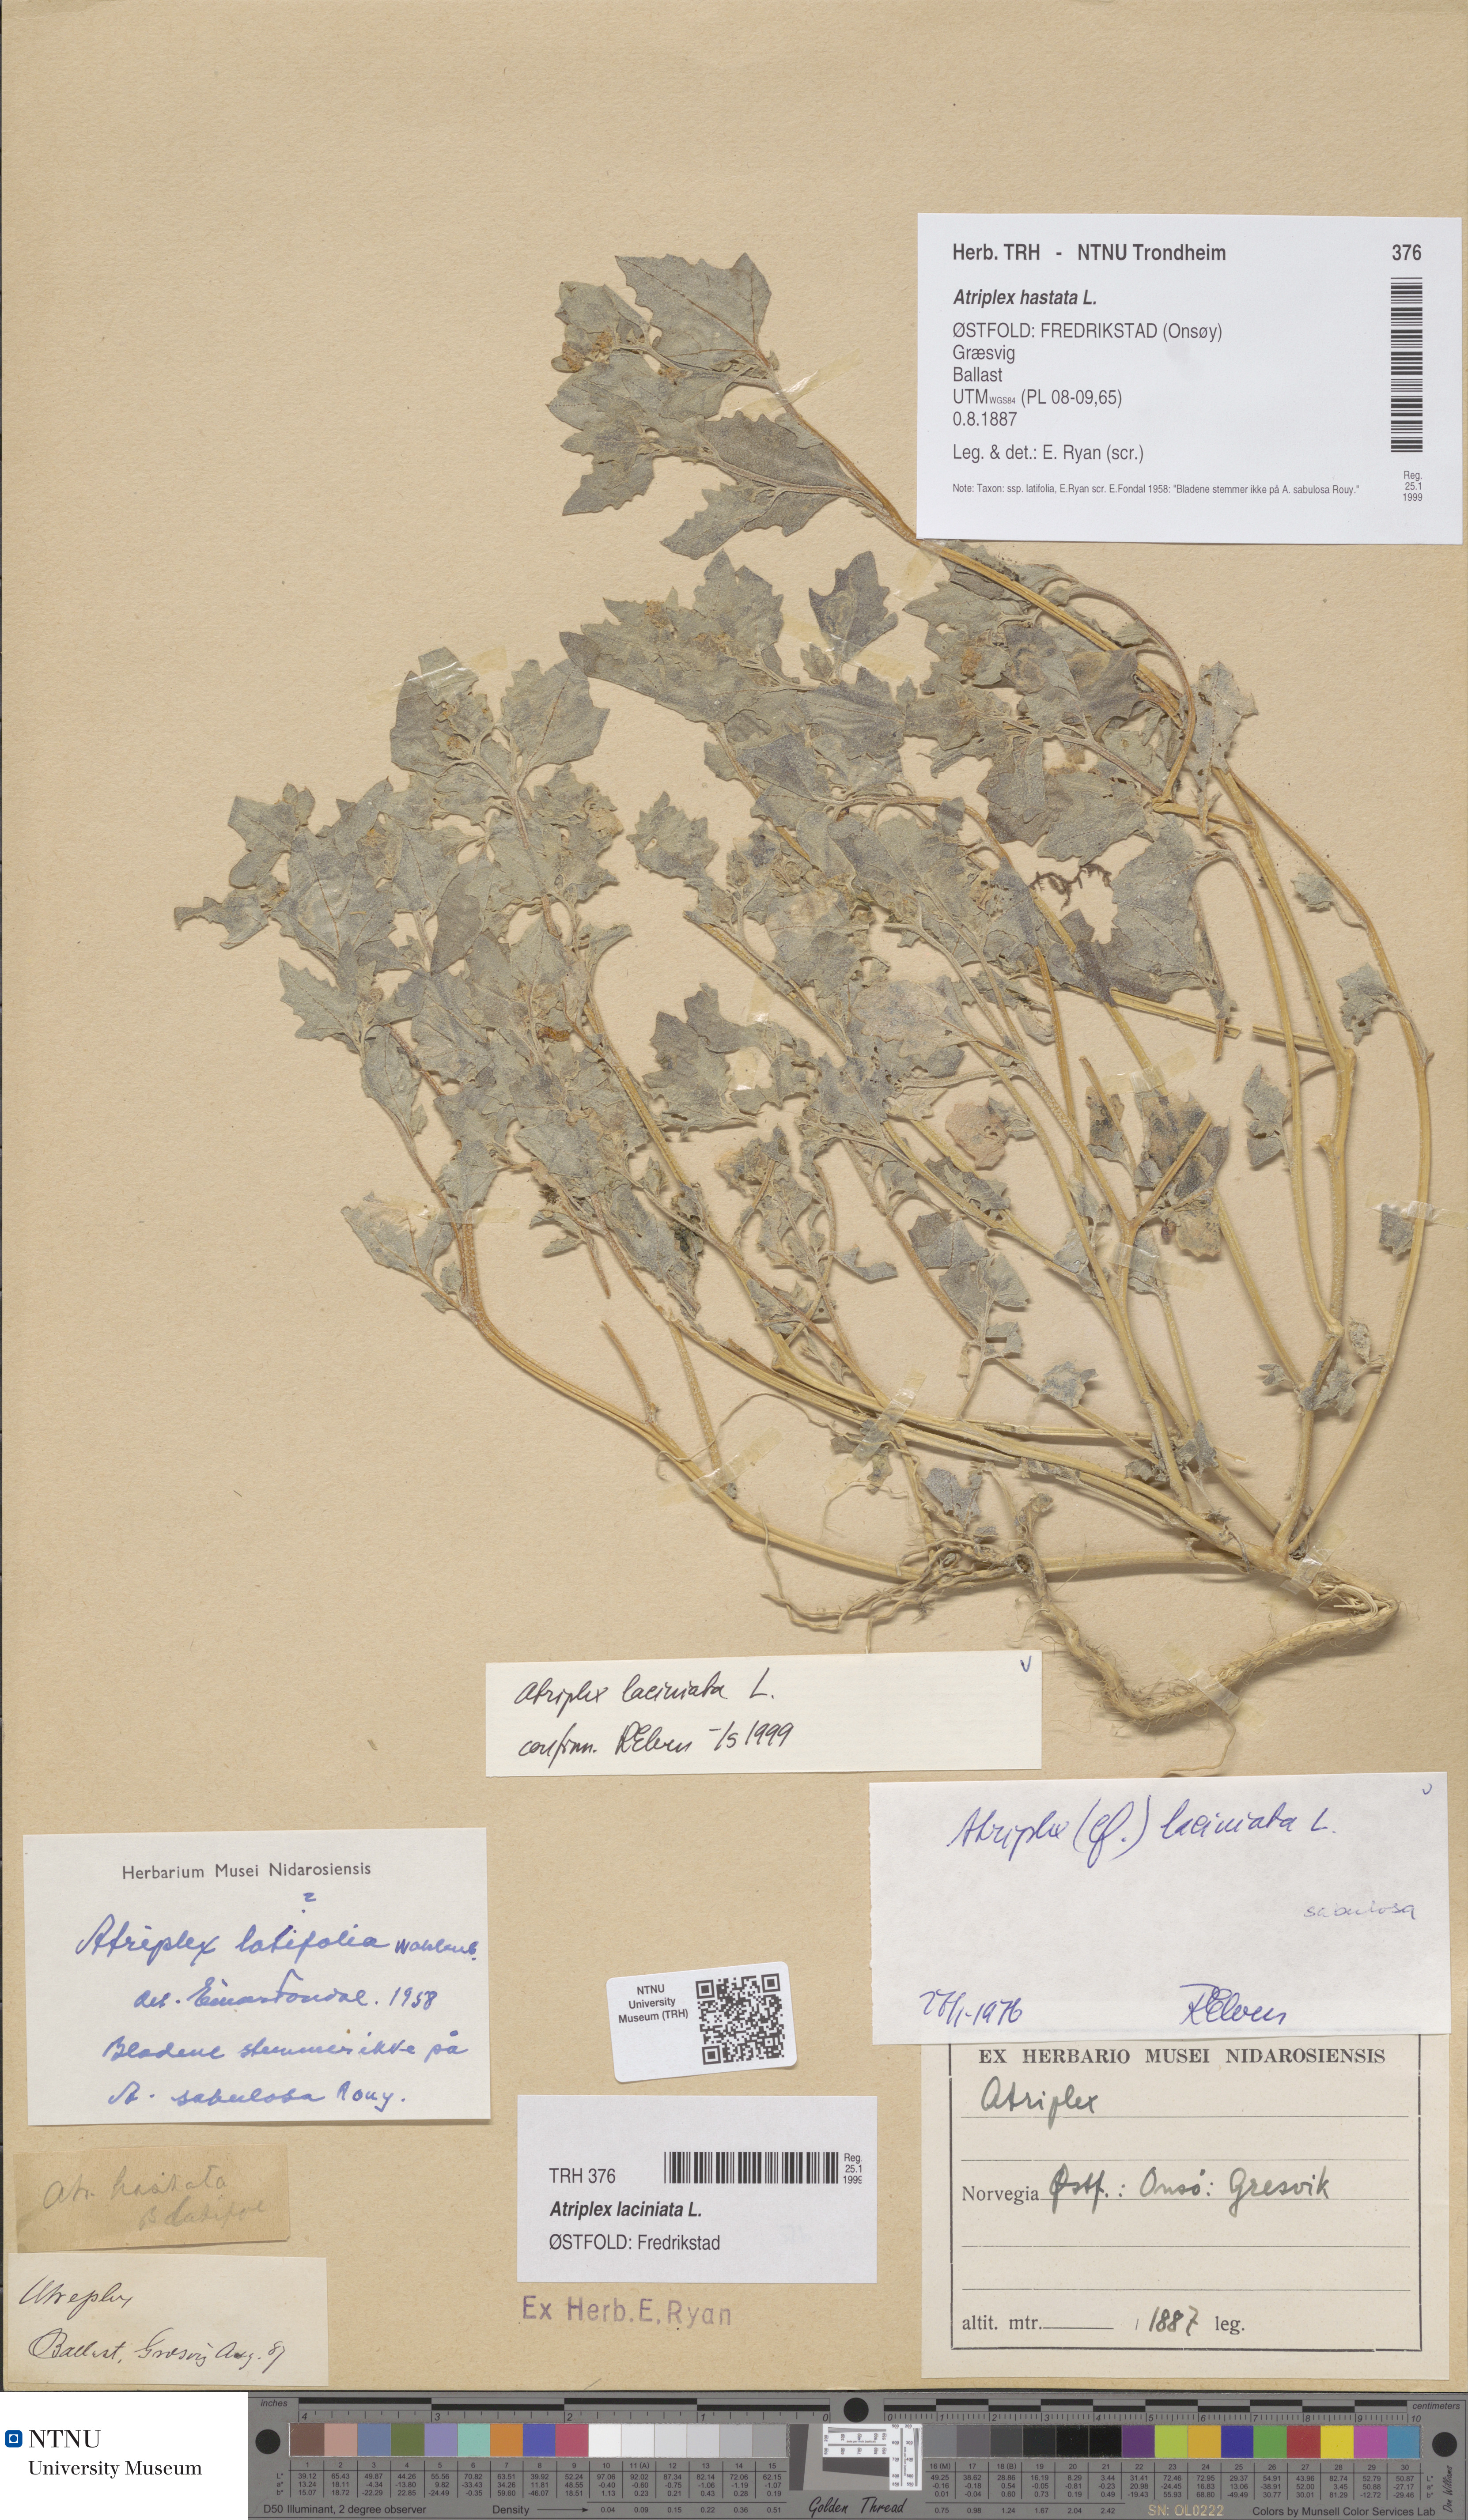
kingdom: Plantae
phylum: Tracheophyta
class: Magnoliopsida
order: Caryophyllales
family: Amaranthaceae
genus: Atriplex
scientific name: Atriplex laciniata
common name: Frosted orache
